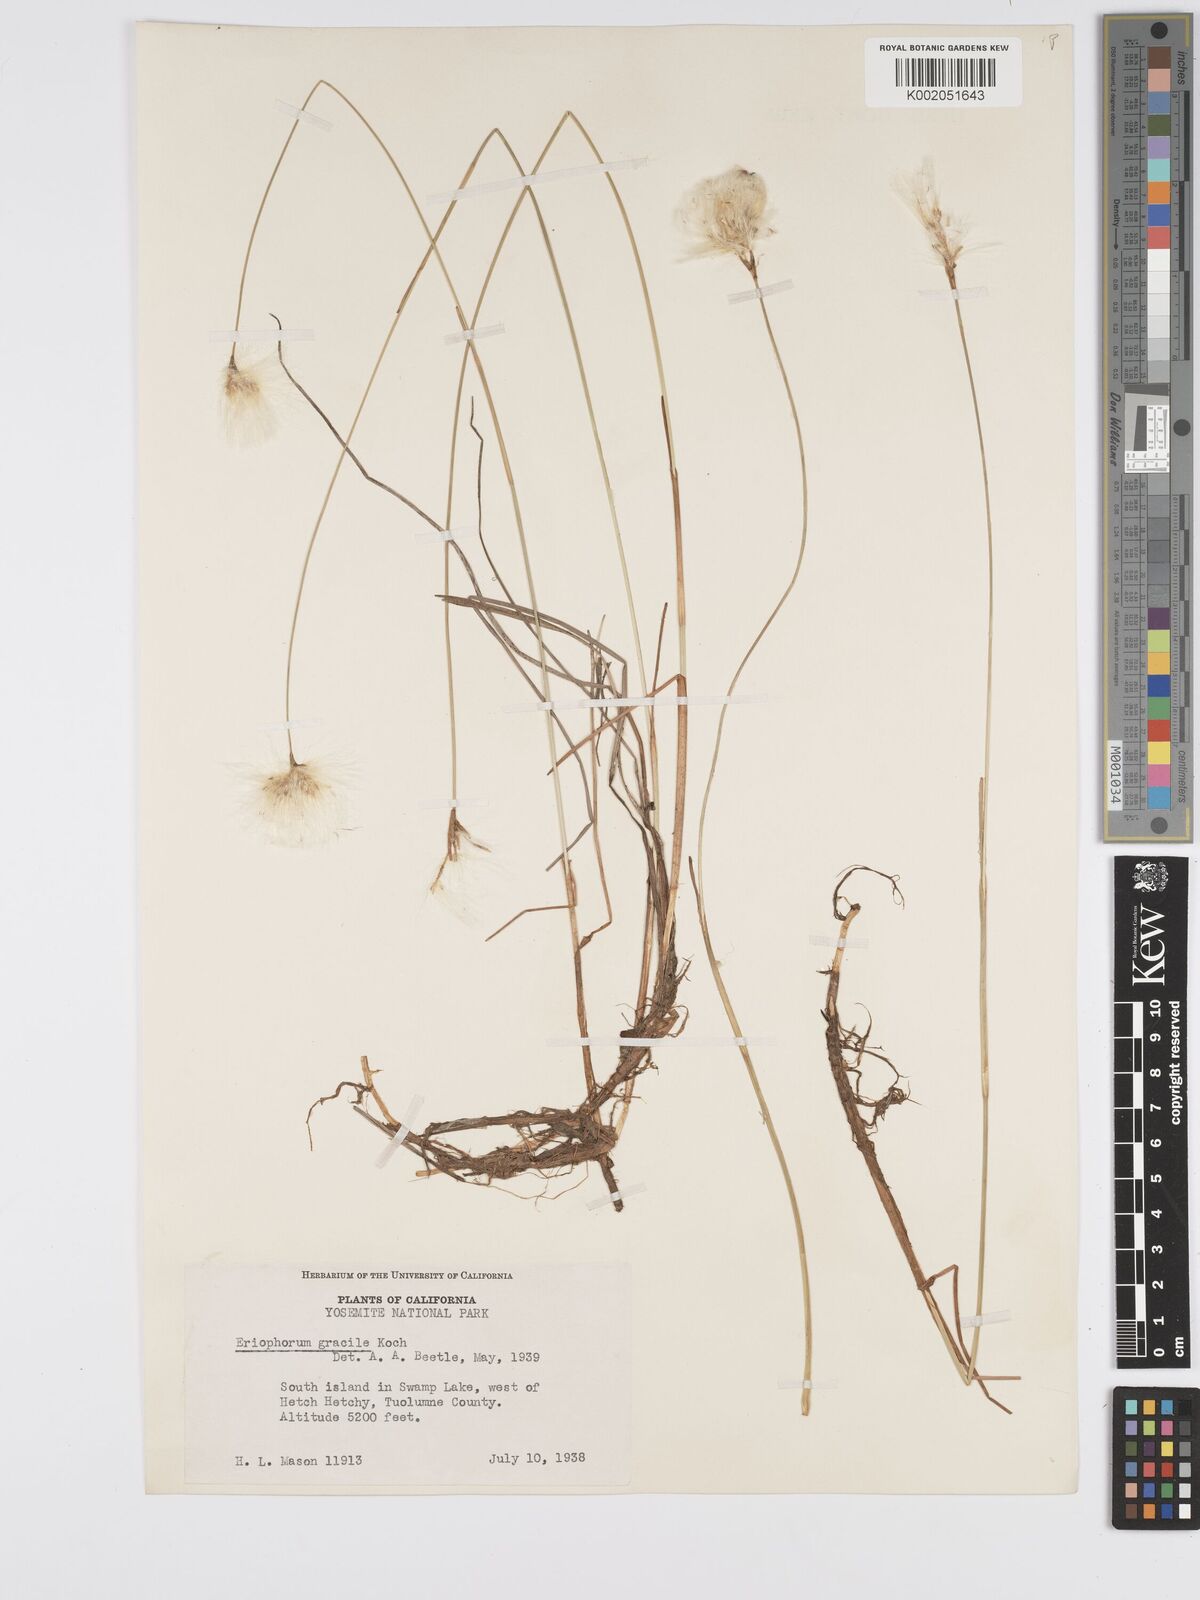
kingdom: Plantae
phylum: Tracheophyta
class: Liliopsida
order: Poales
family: Cyperaceae
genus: Eriophorum
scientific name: Eriophorum chamissonis
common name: Chamisso's cottongrass
